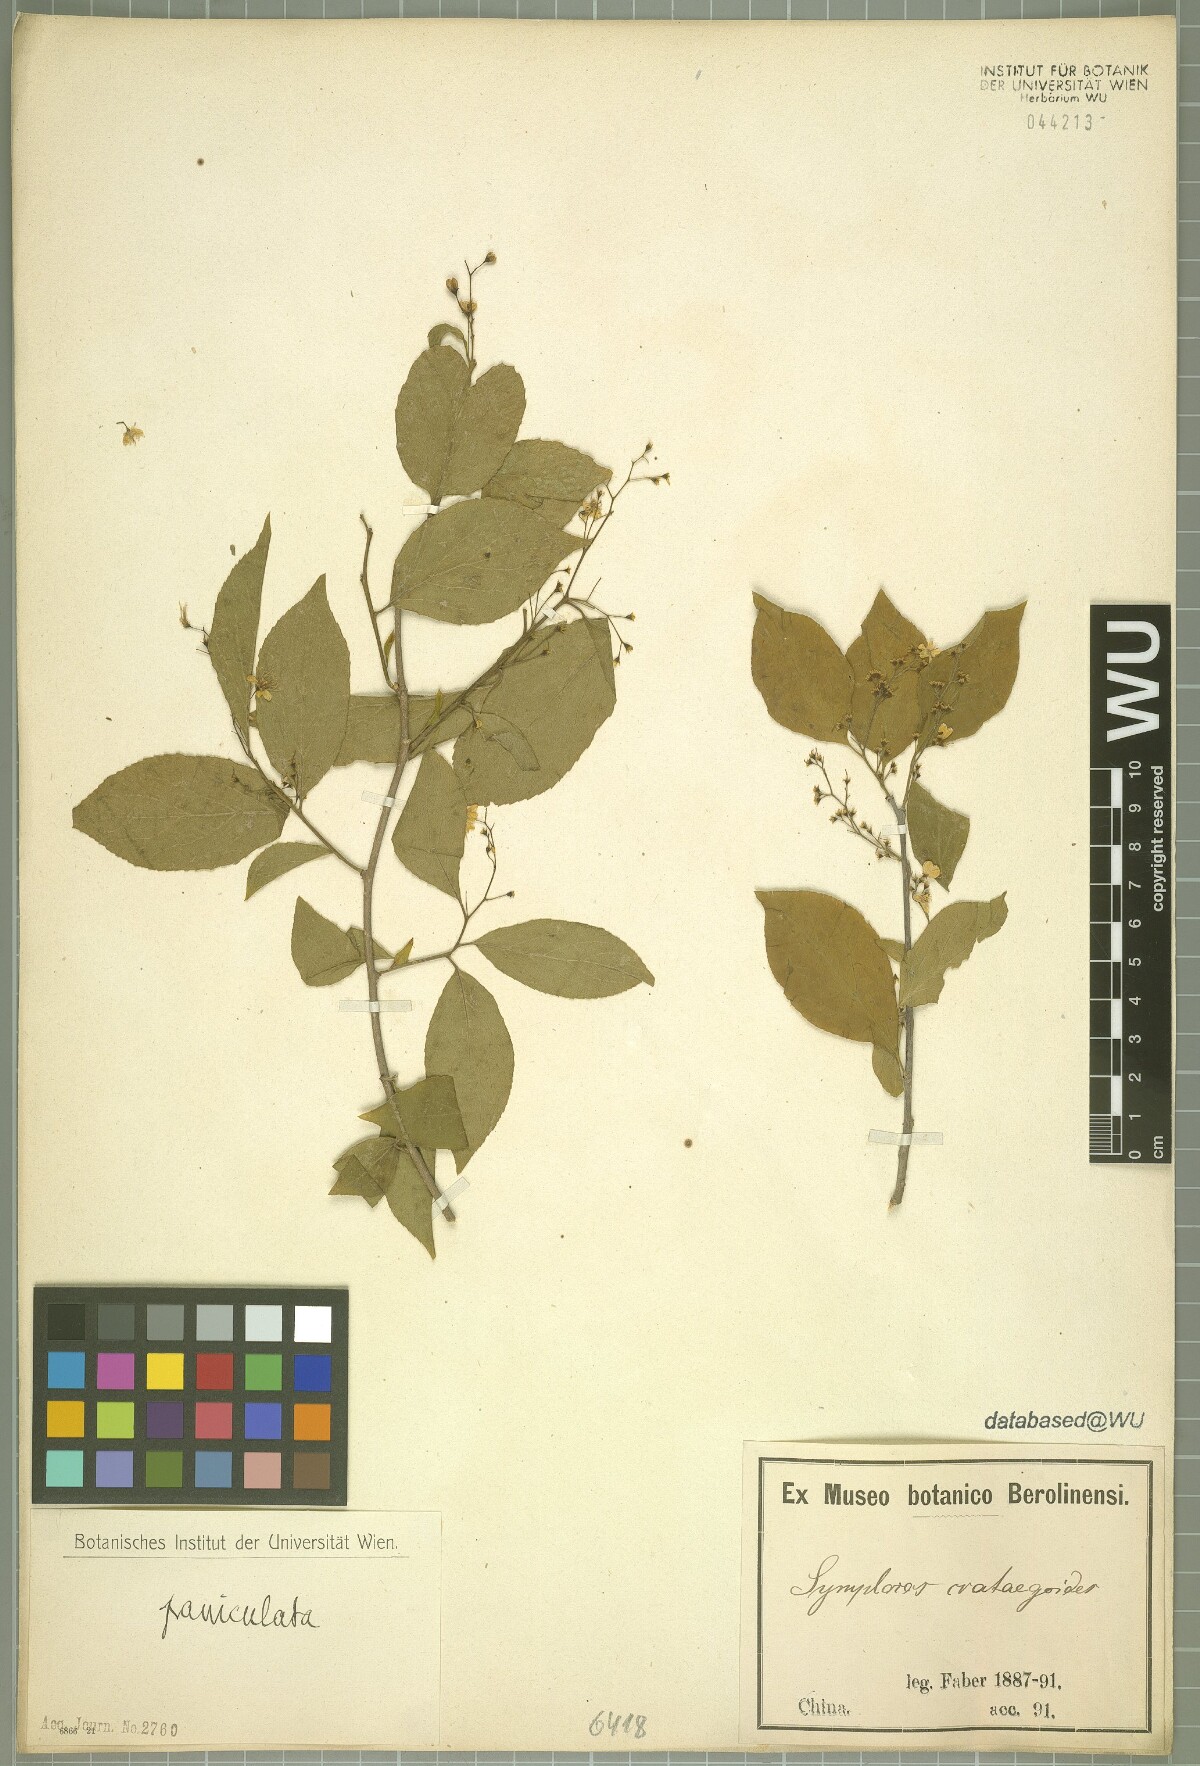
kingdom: Plantae
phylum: Tracheophyta
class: Magnoliopsida
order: Ericales
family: Symplocaceae
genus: Symplocos
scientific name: Symplocos paniculata
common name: Sapphire-berry
